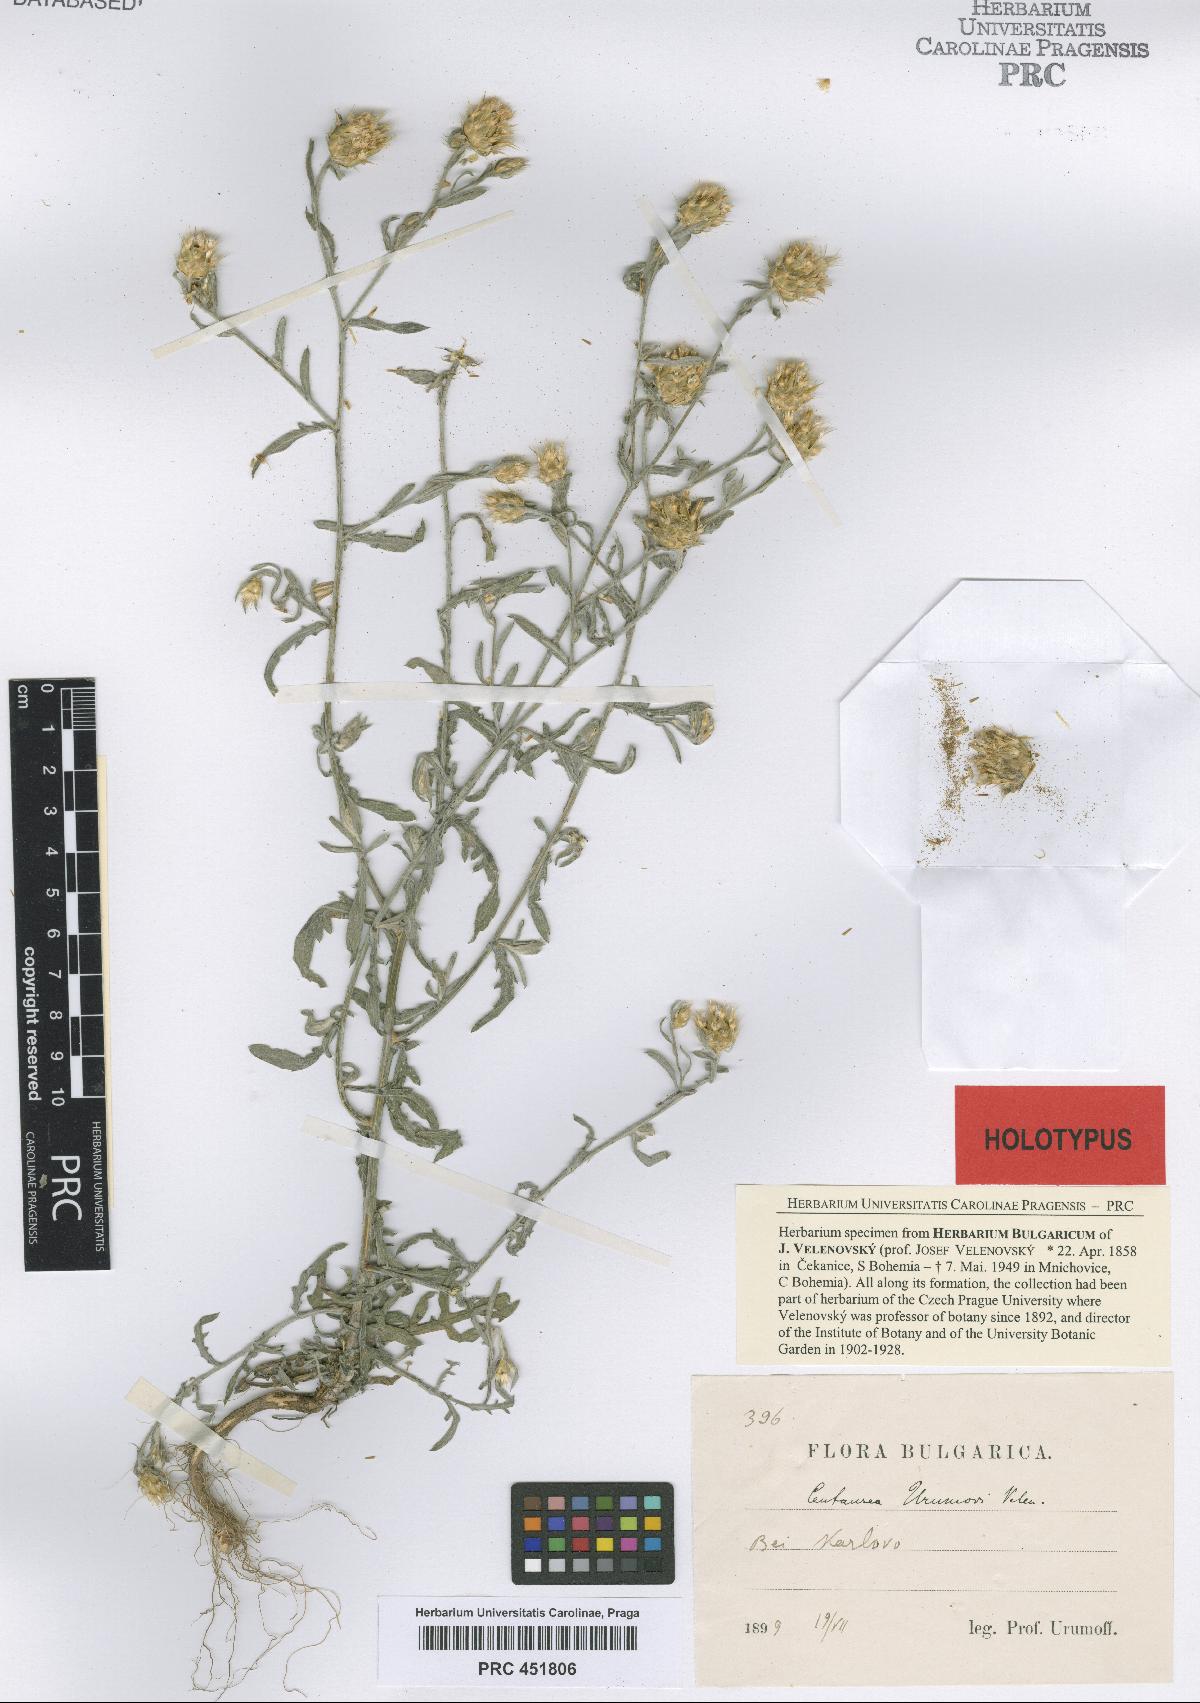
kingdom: Plantae
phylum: Tracheophyta
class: Magnoliopsida
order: Asterales
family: Asteraceae
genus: Centaurea
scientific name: Centaurea urumovii
